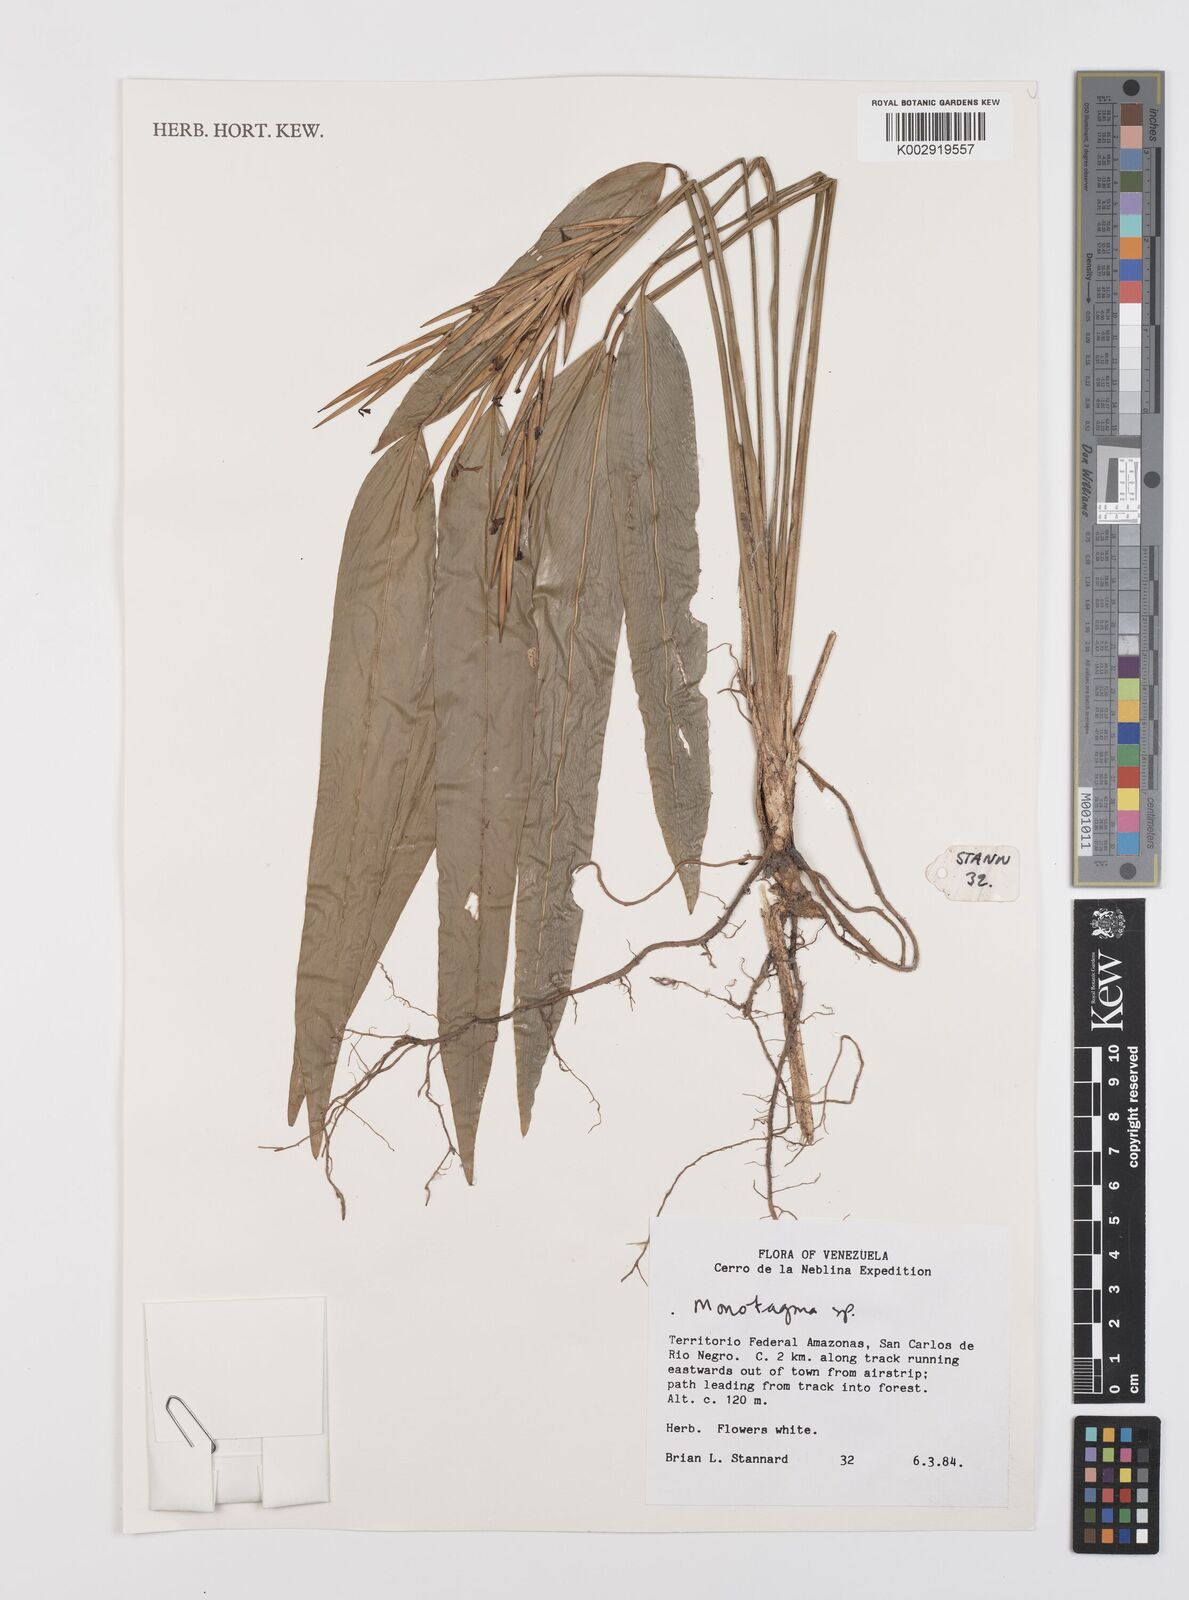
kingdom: Plantae
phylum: Tracheophyta
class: Liliopsida
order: Zingiberales
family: Marantaceae
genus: Monotagma
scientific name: Monotagma
